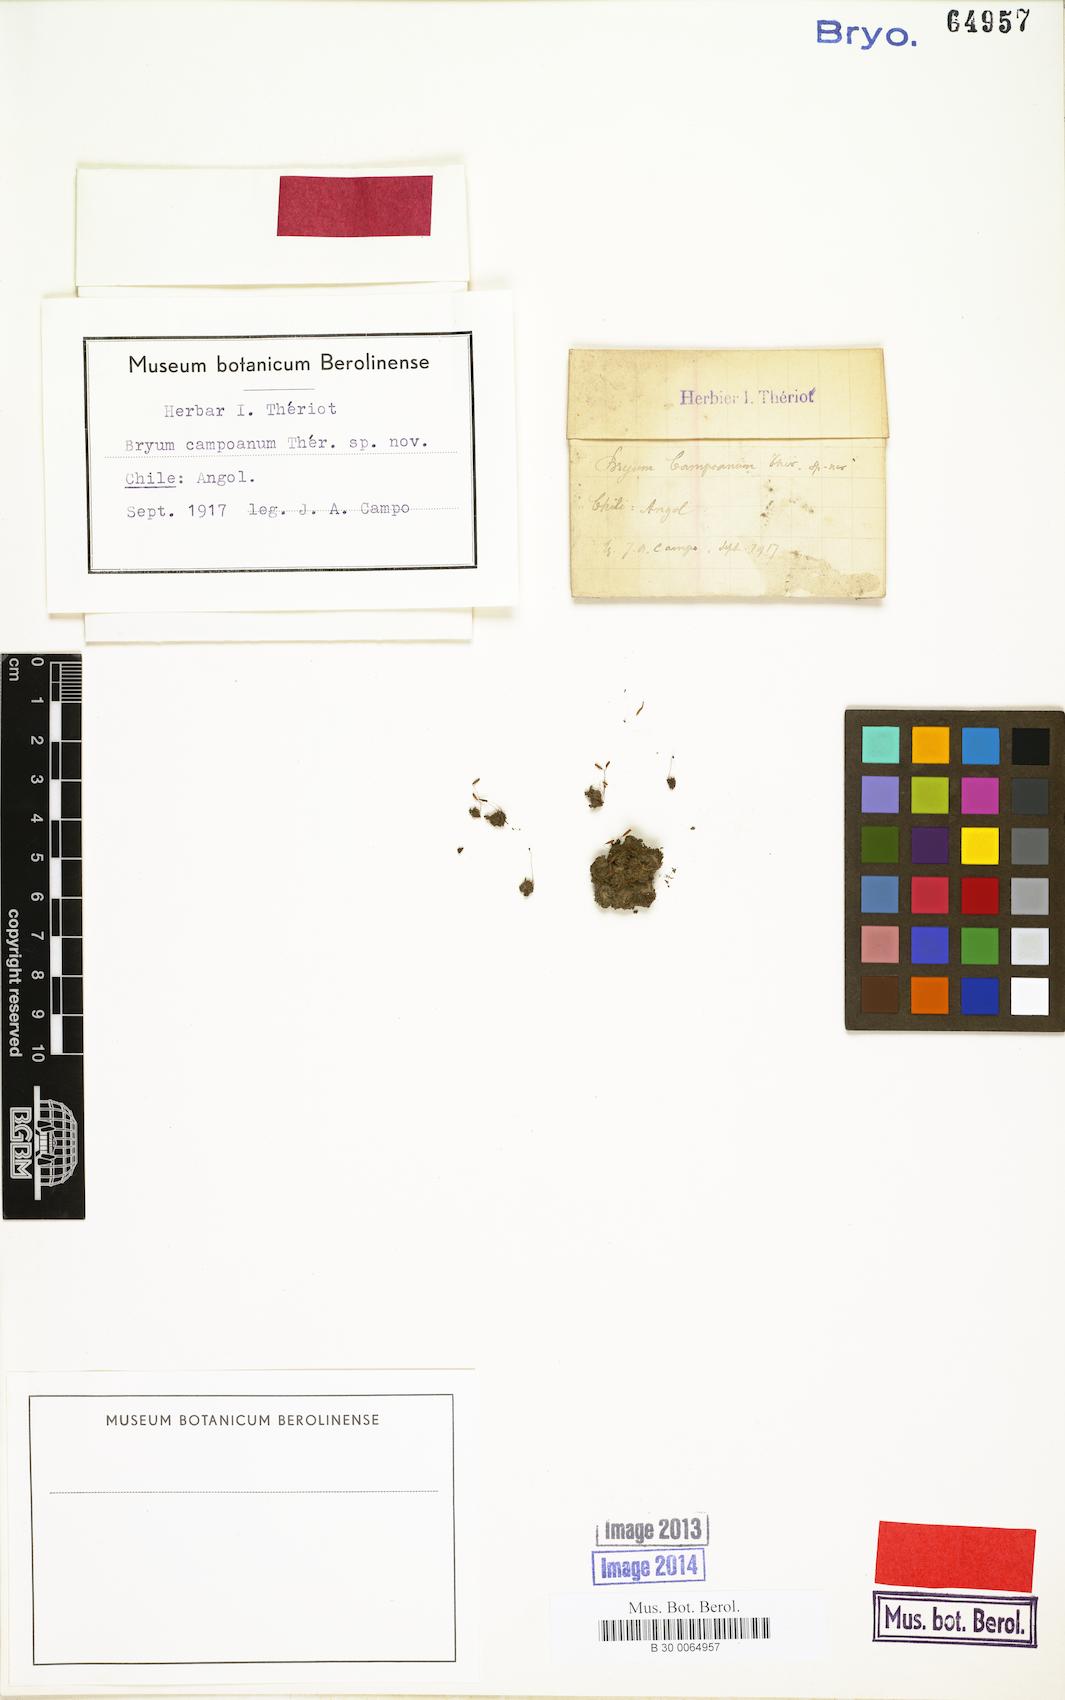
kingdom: Plantae
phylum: Bryophyta
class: Bryopsida
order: Bryales
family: Bryaceae
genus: Bryum
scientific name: Bryum campoanum
